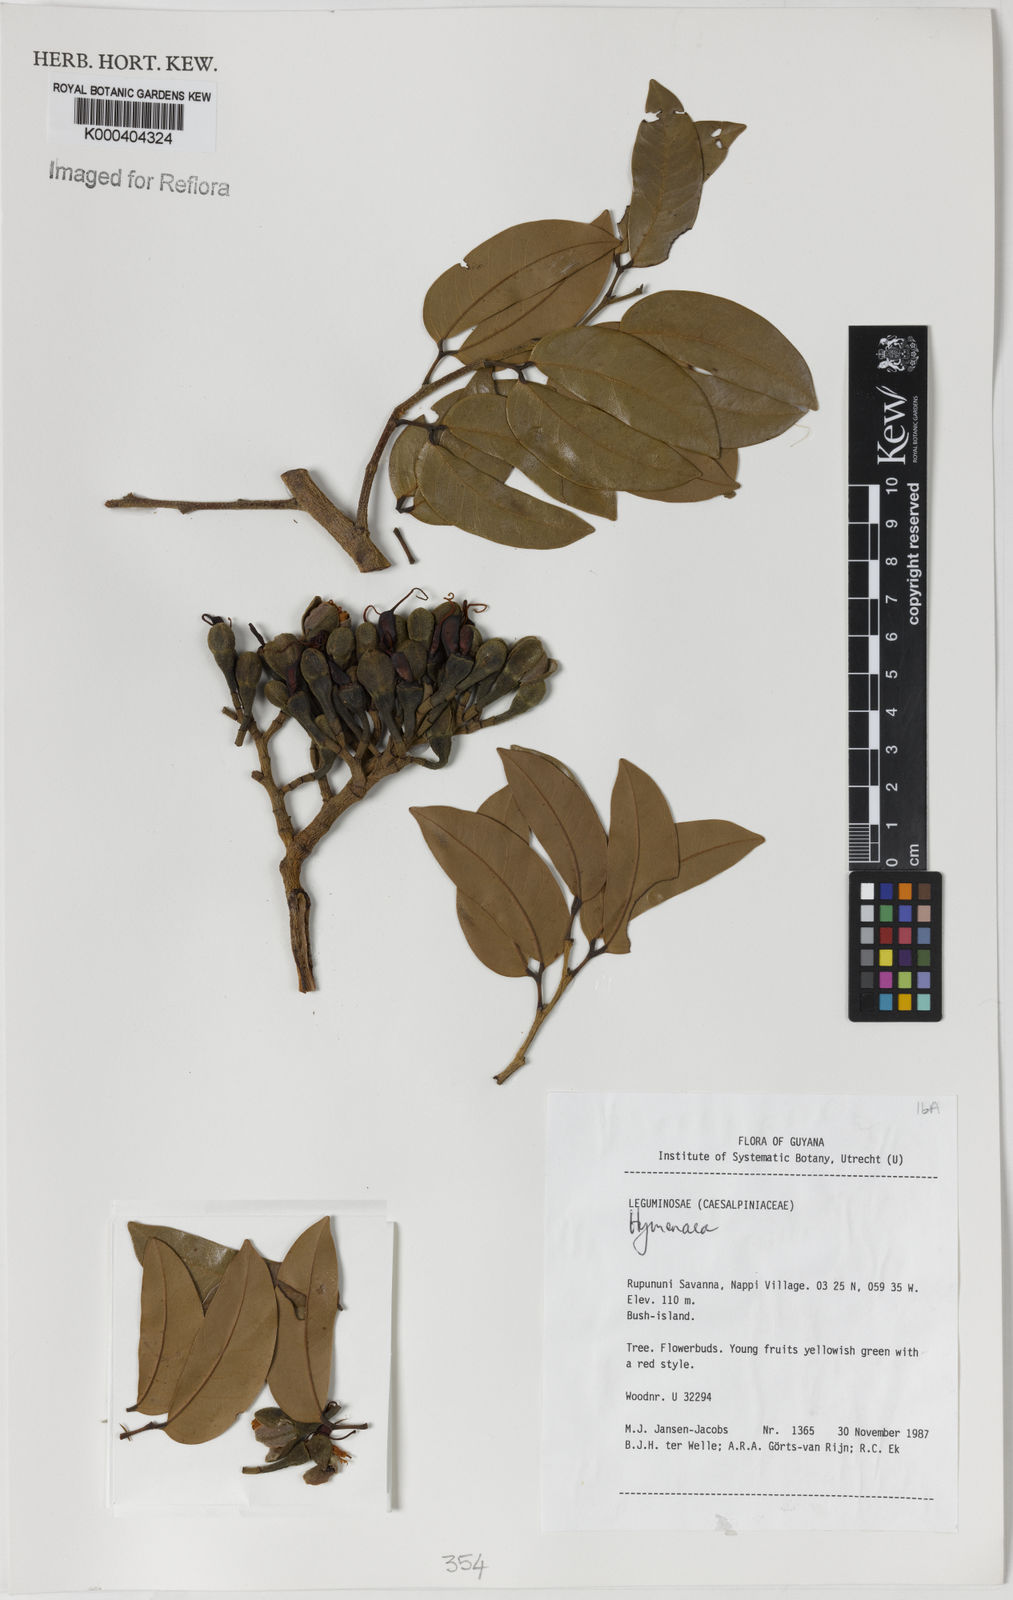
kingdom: Plantae
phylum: Tracheophyta
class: Magnoliopsida
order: Fabales
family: Fabaceae
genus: Hymenaea
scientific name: Hymenaea
